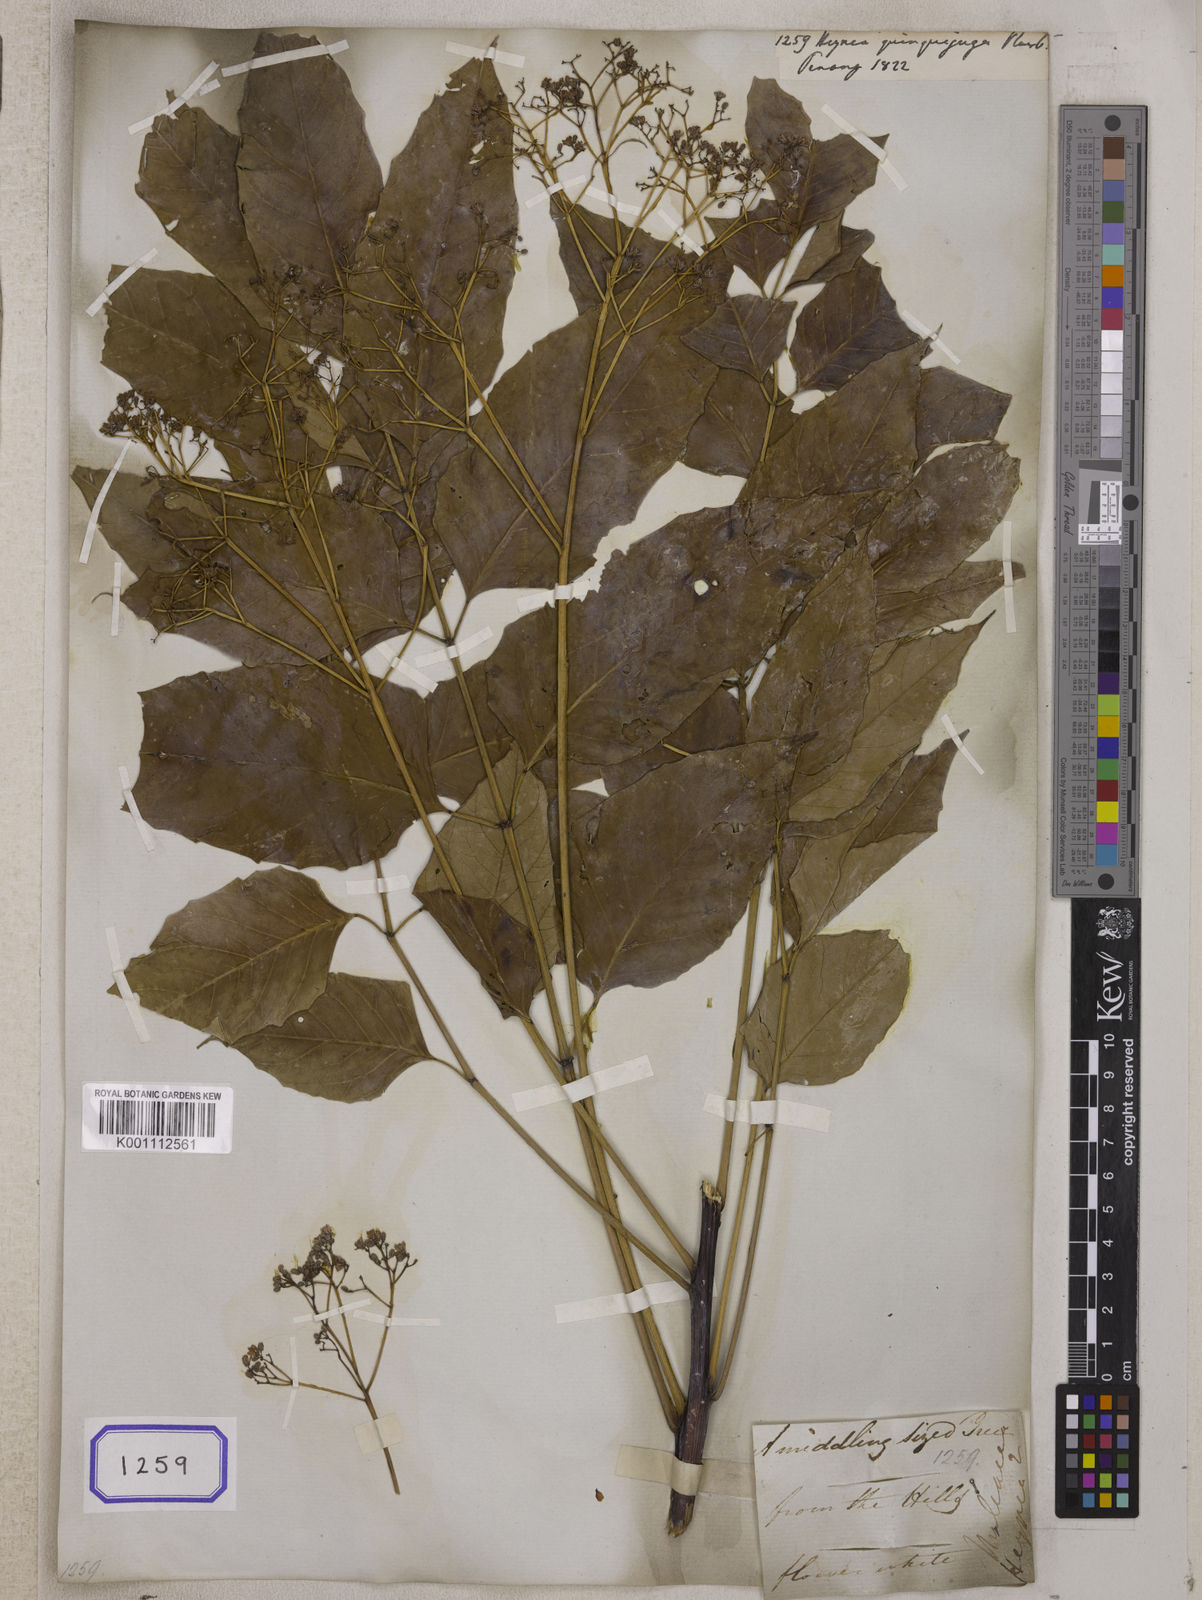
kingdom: Plantae
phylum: Tracheophyta
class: Magnoliopsida
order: Sapindales
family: Meliaceae
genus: Heynea
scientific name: Heynea
